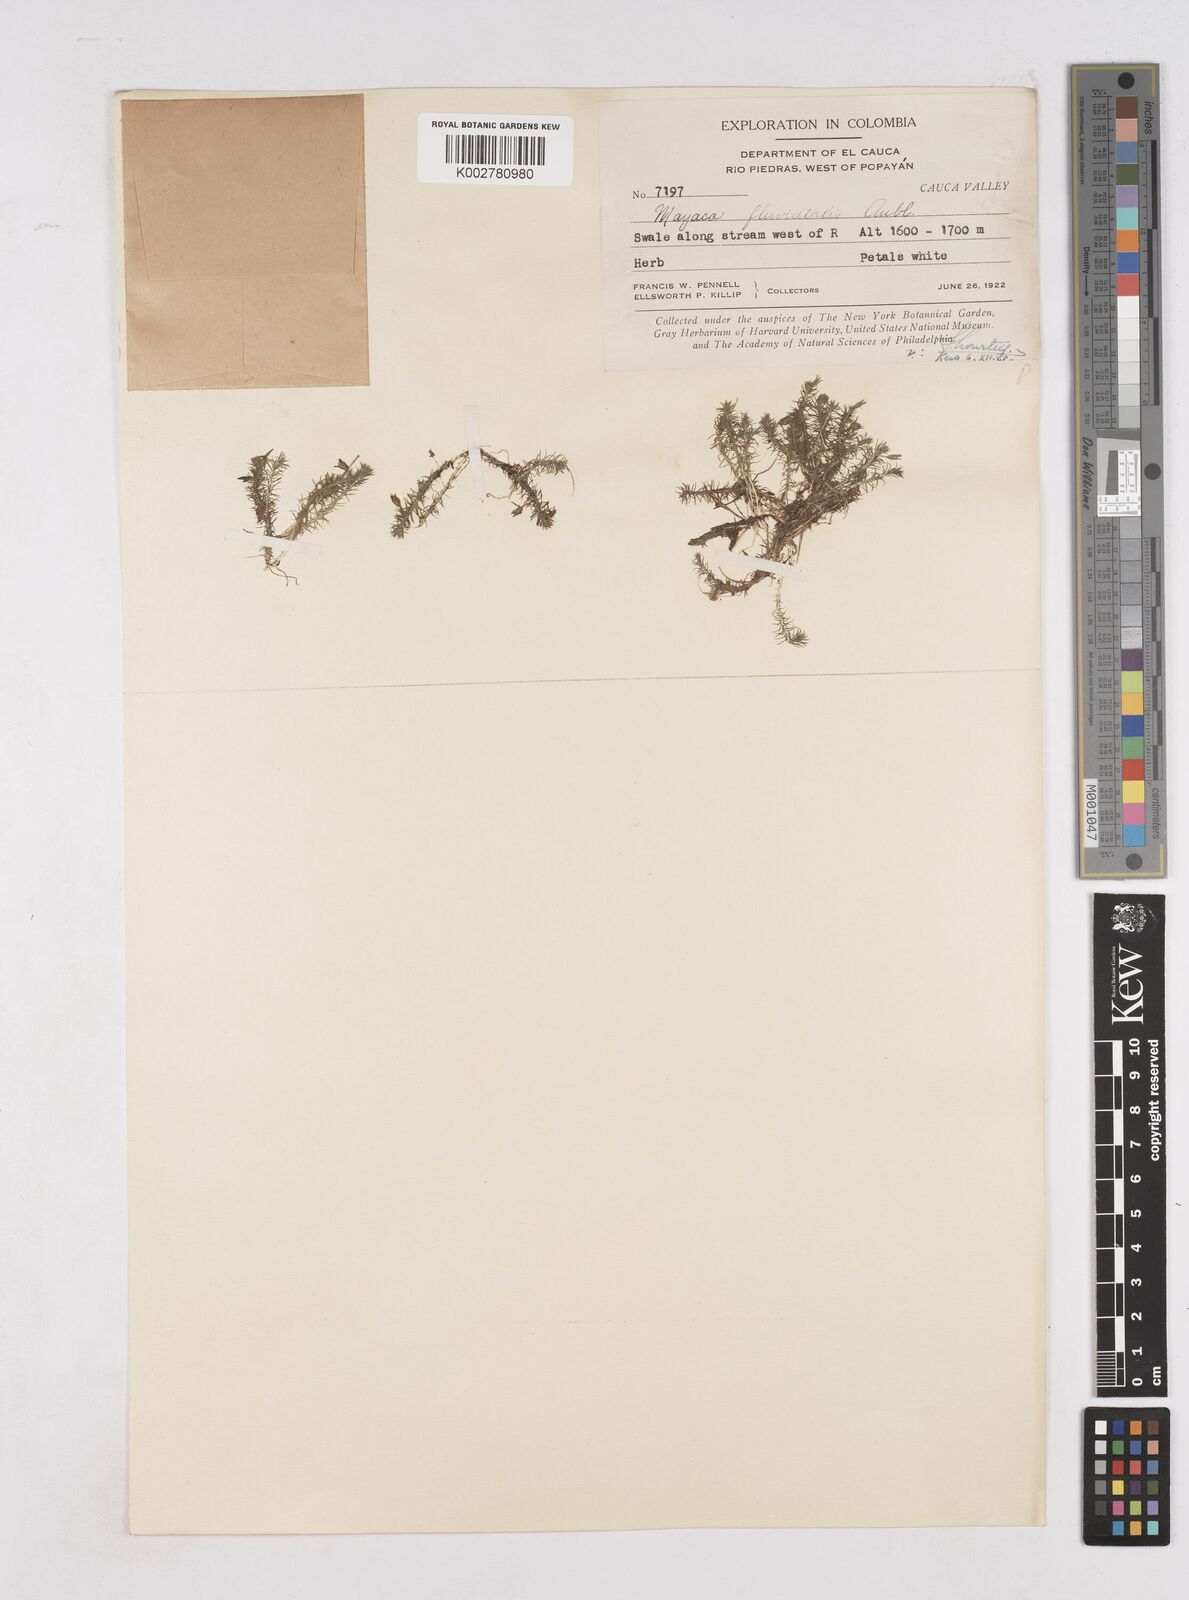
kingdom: Plantae
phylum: Tracheophyta
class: Liliopsida
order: Poales
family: Mayacaceae
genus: Mayaca
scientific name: Mayaca fluviatilis
